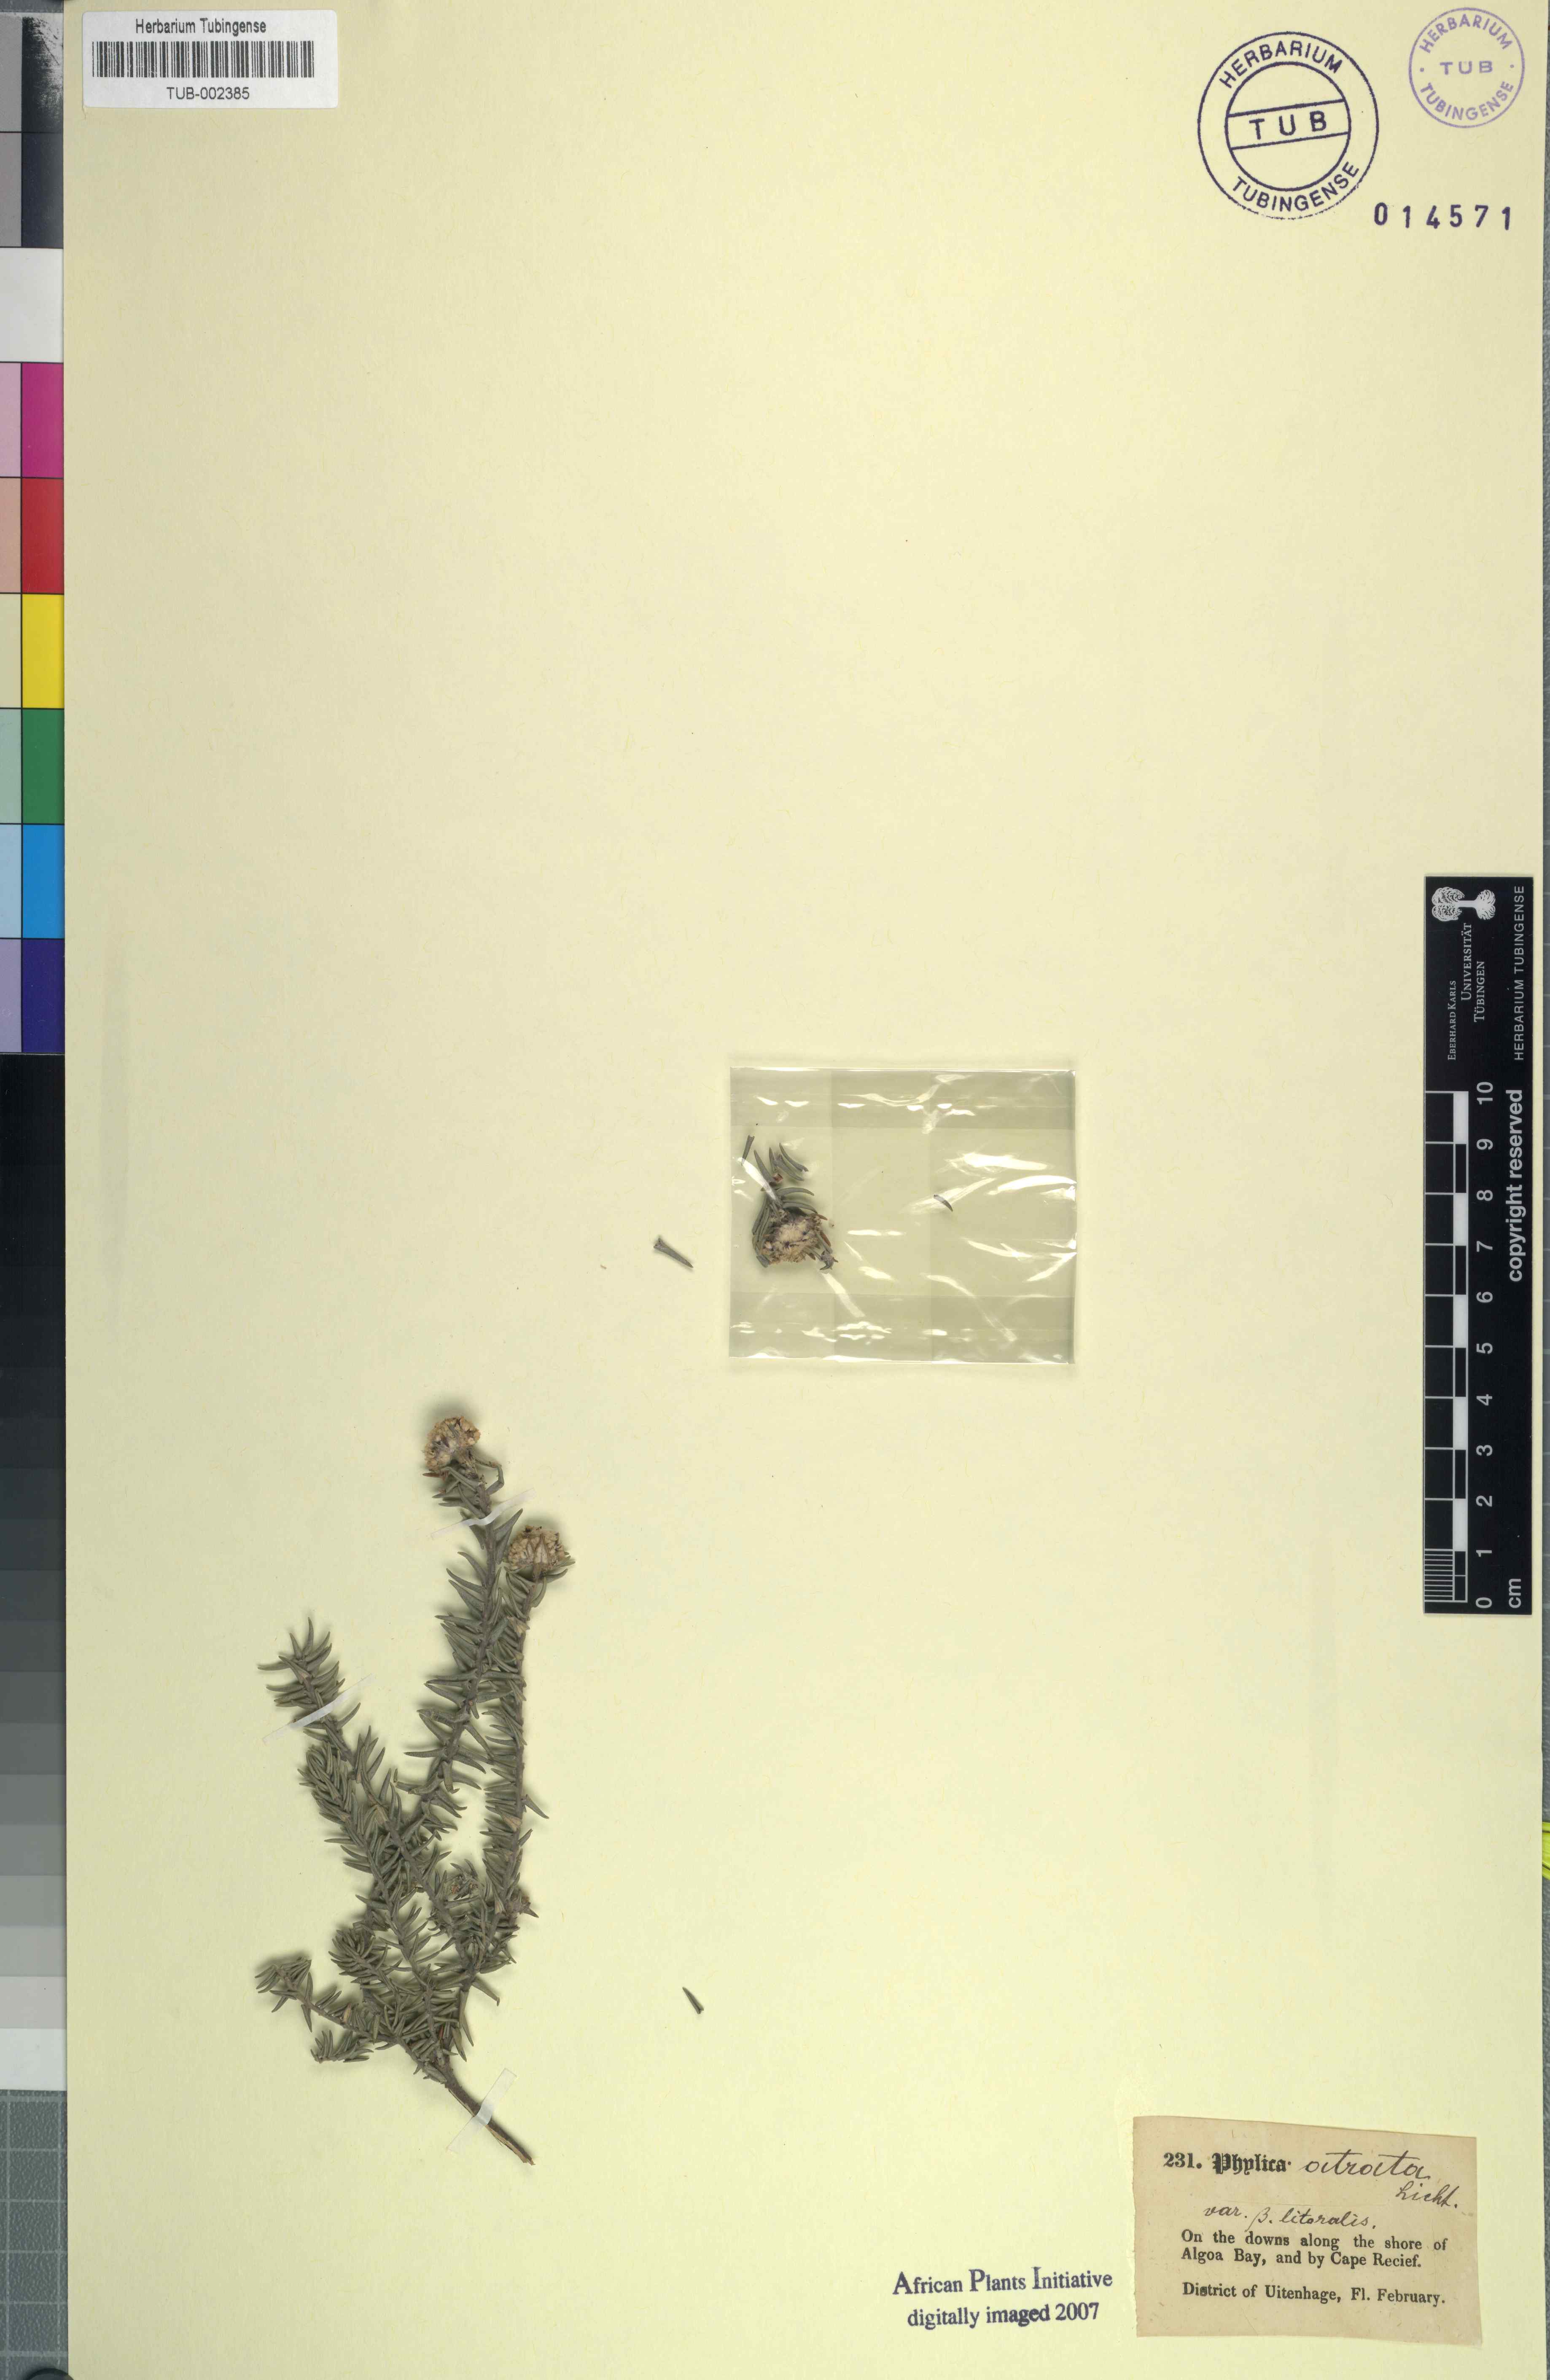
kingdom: Plantae
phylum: Tracheophyta
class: Magnoliopsida
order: Rosales
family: Rhamnaceae
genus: Phylica
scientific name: Phylica atrata
